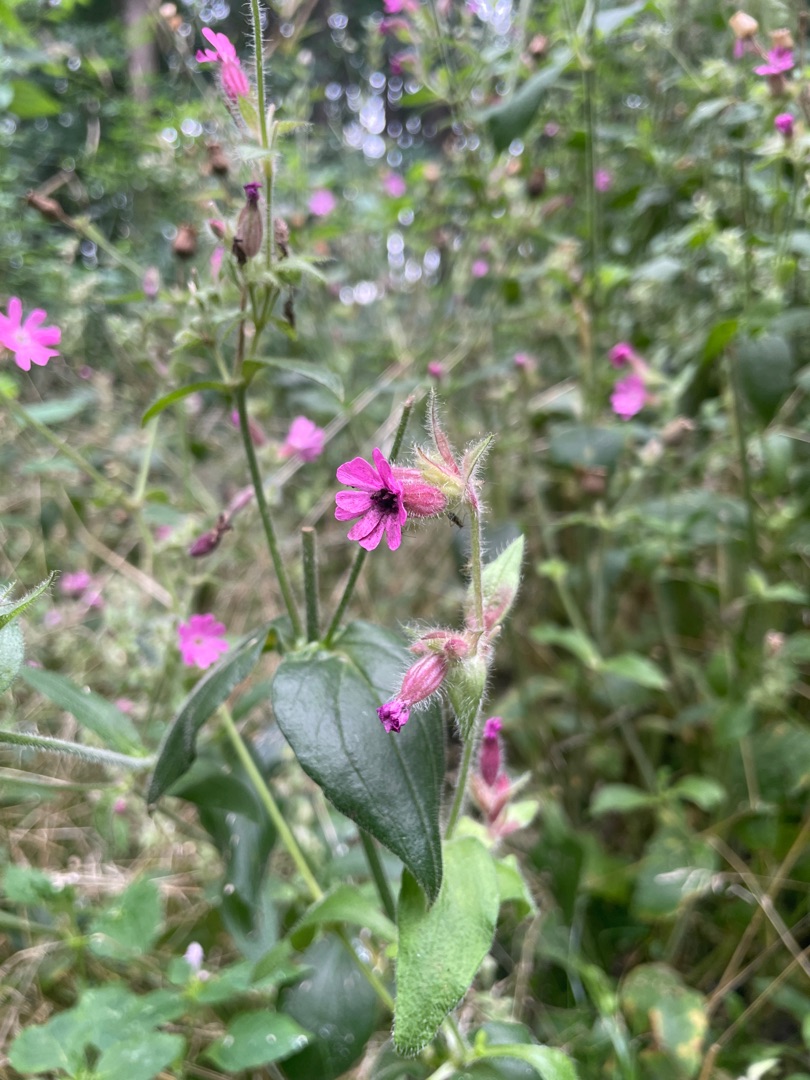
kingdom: Plantae
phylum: Tracheophyta
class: Magnoliopsida
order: Caryophyllales
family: Caryophyllaceae
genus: Silene
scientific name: Silene dioica
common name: Dagpragtstjerne
